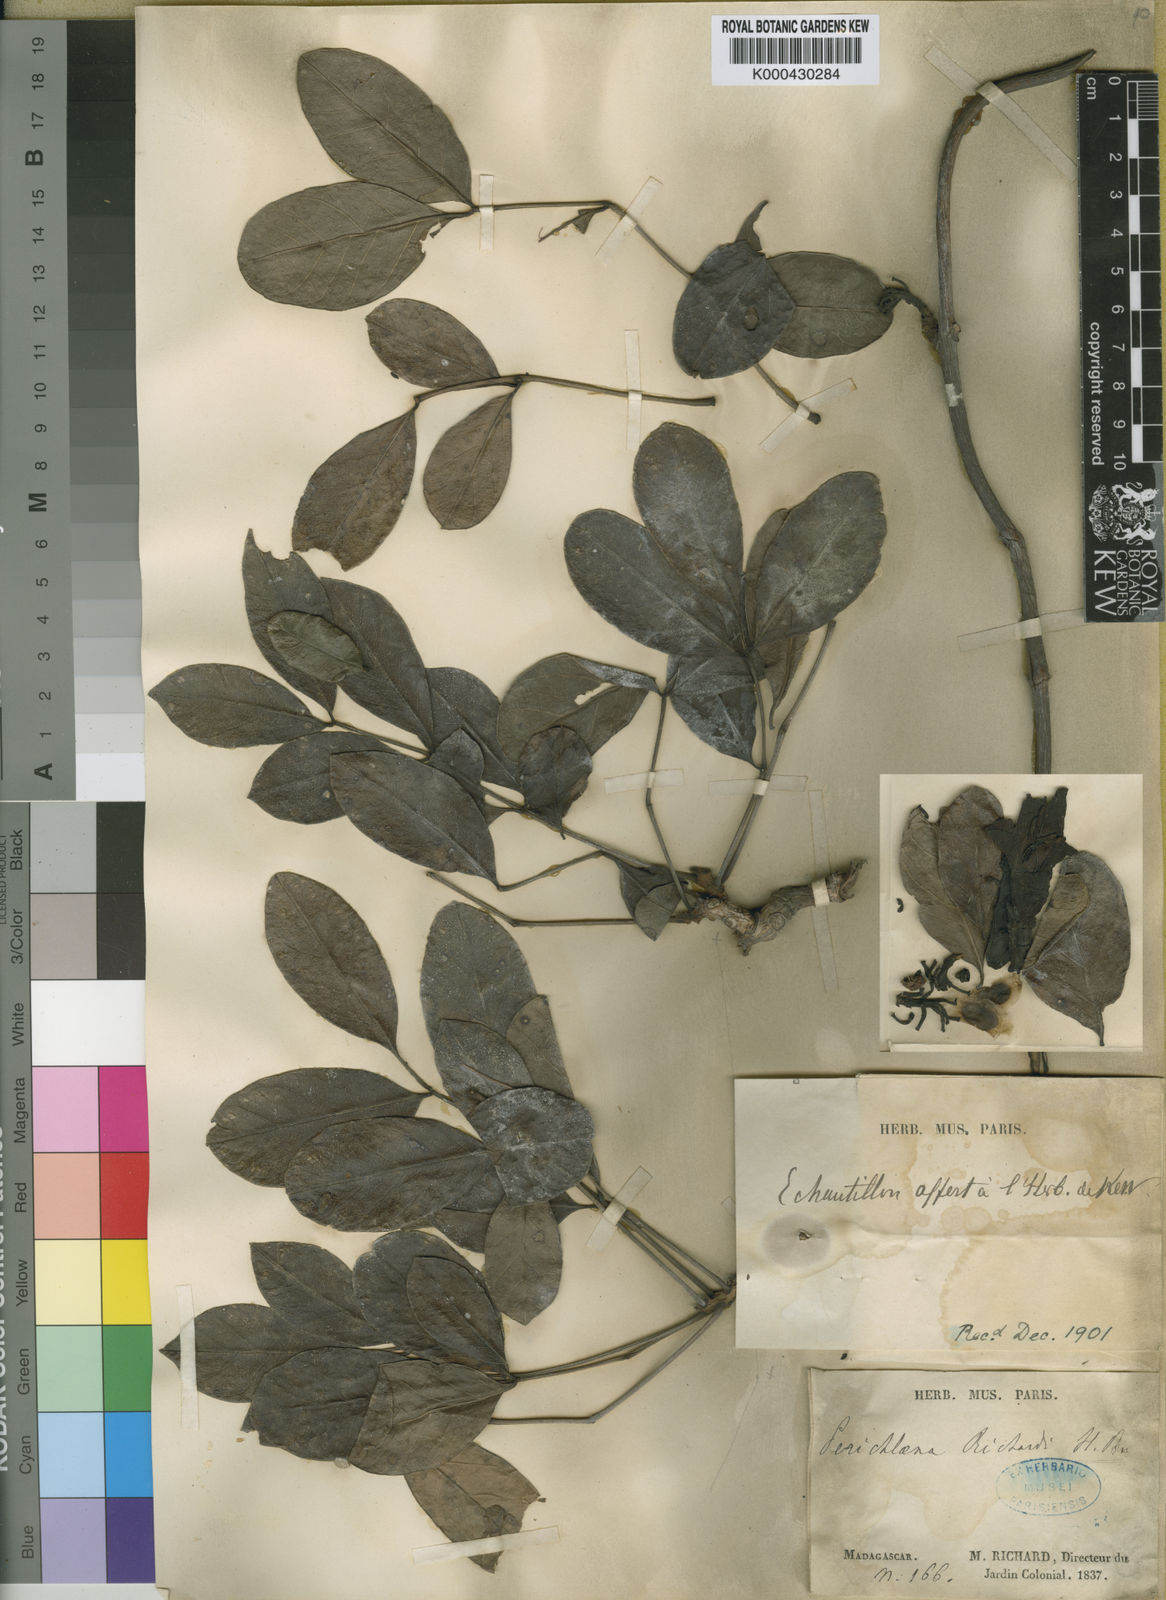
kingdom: Plantae
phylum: Tracheophyta
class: Magnoliopsida
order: Lamiales
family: Bignoniaceae
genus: Perichlaena
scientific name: Perichlaena richardii
